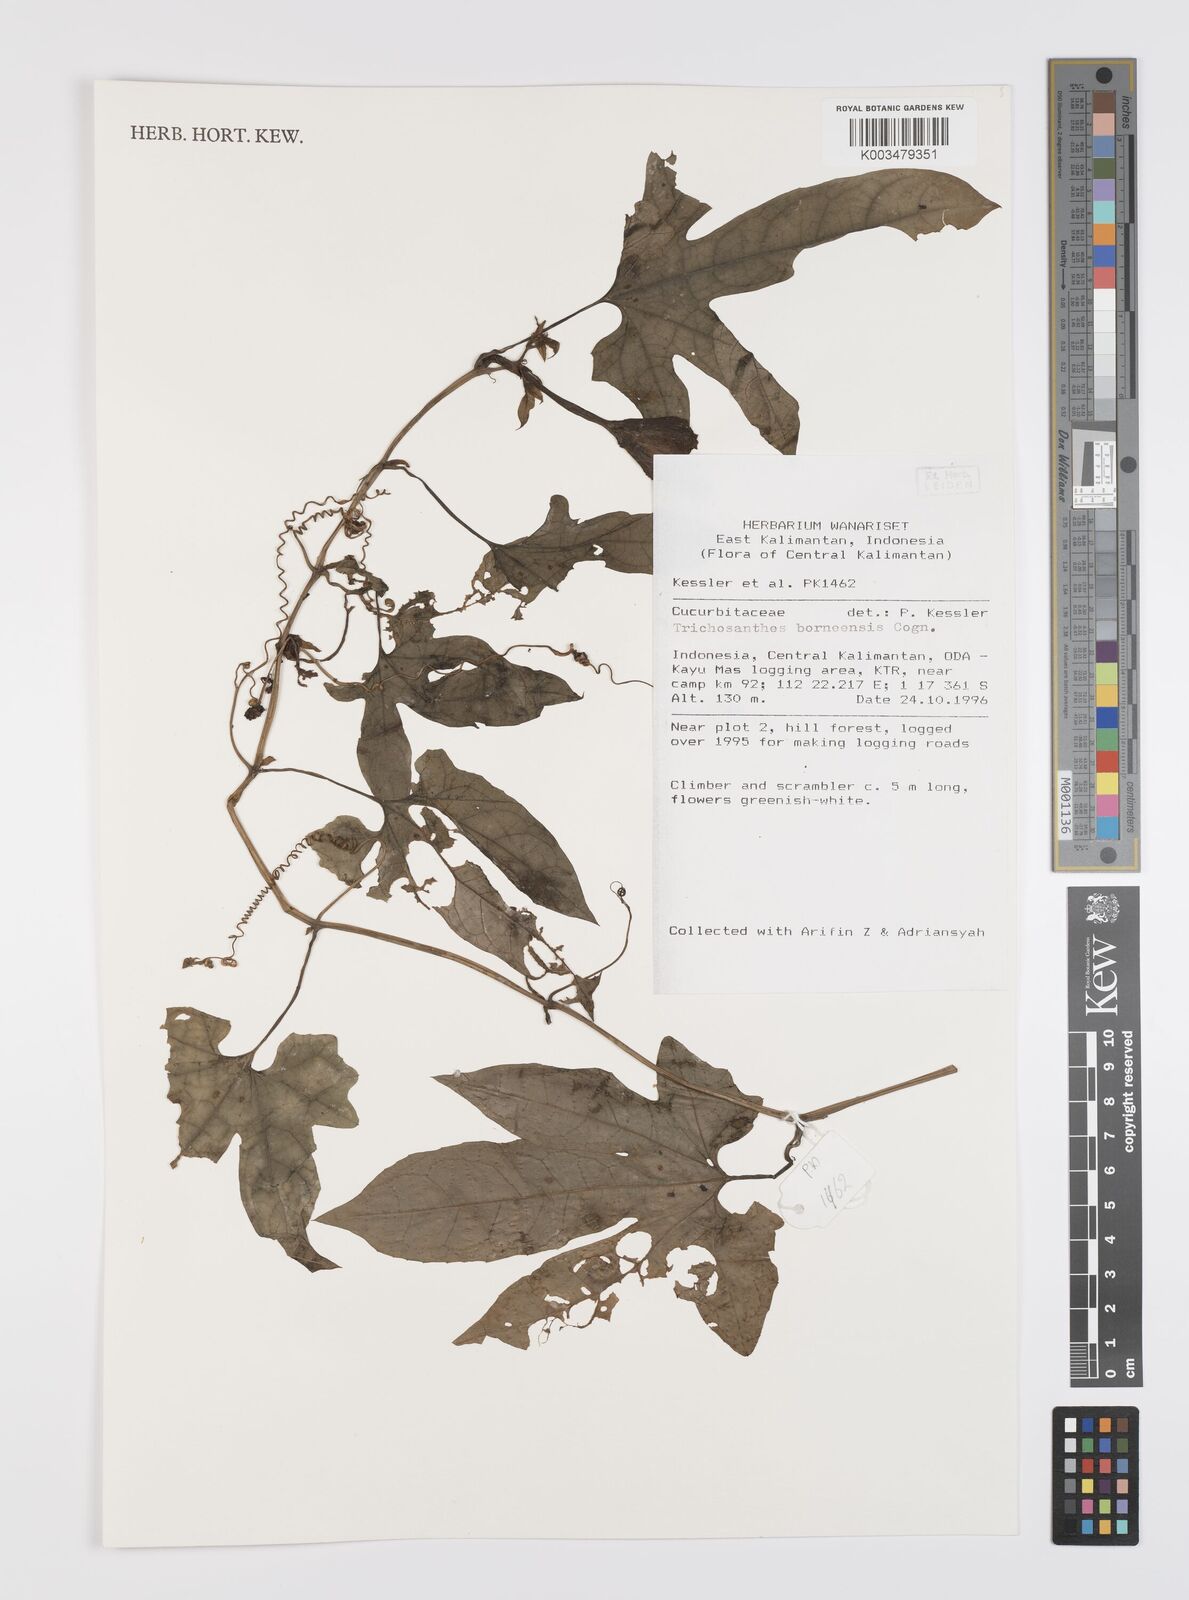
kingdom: Plantae
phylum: Tracheophyta
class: Magnoliopsida
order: Cucurbitales
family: Cucurbitaceae
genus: Trichosanthes
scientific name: Trichosanthes borneensis
